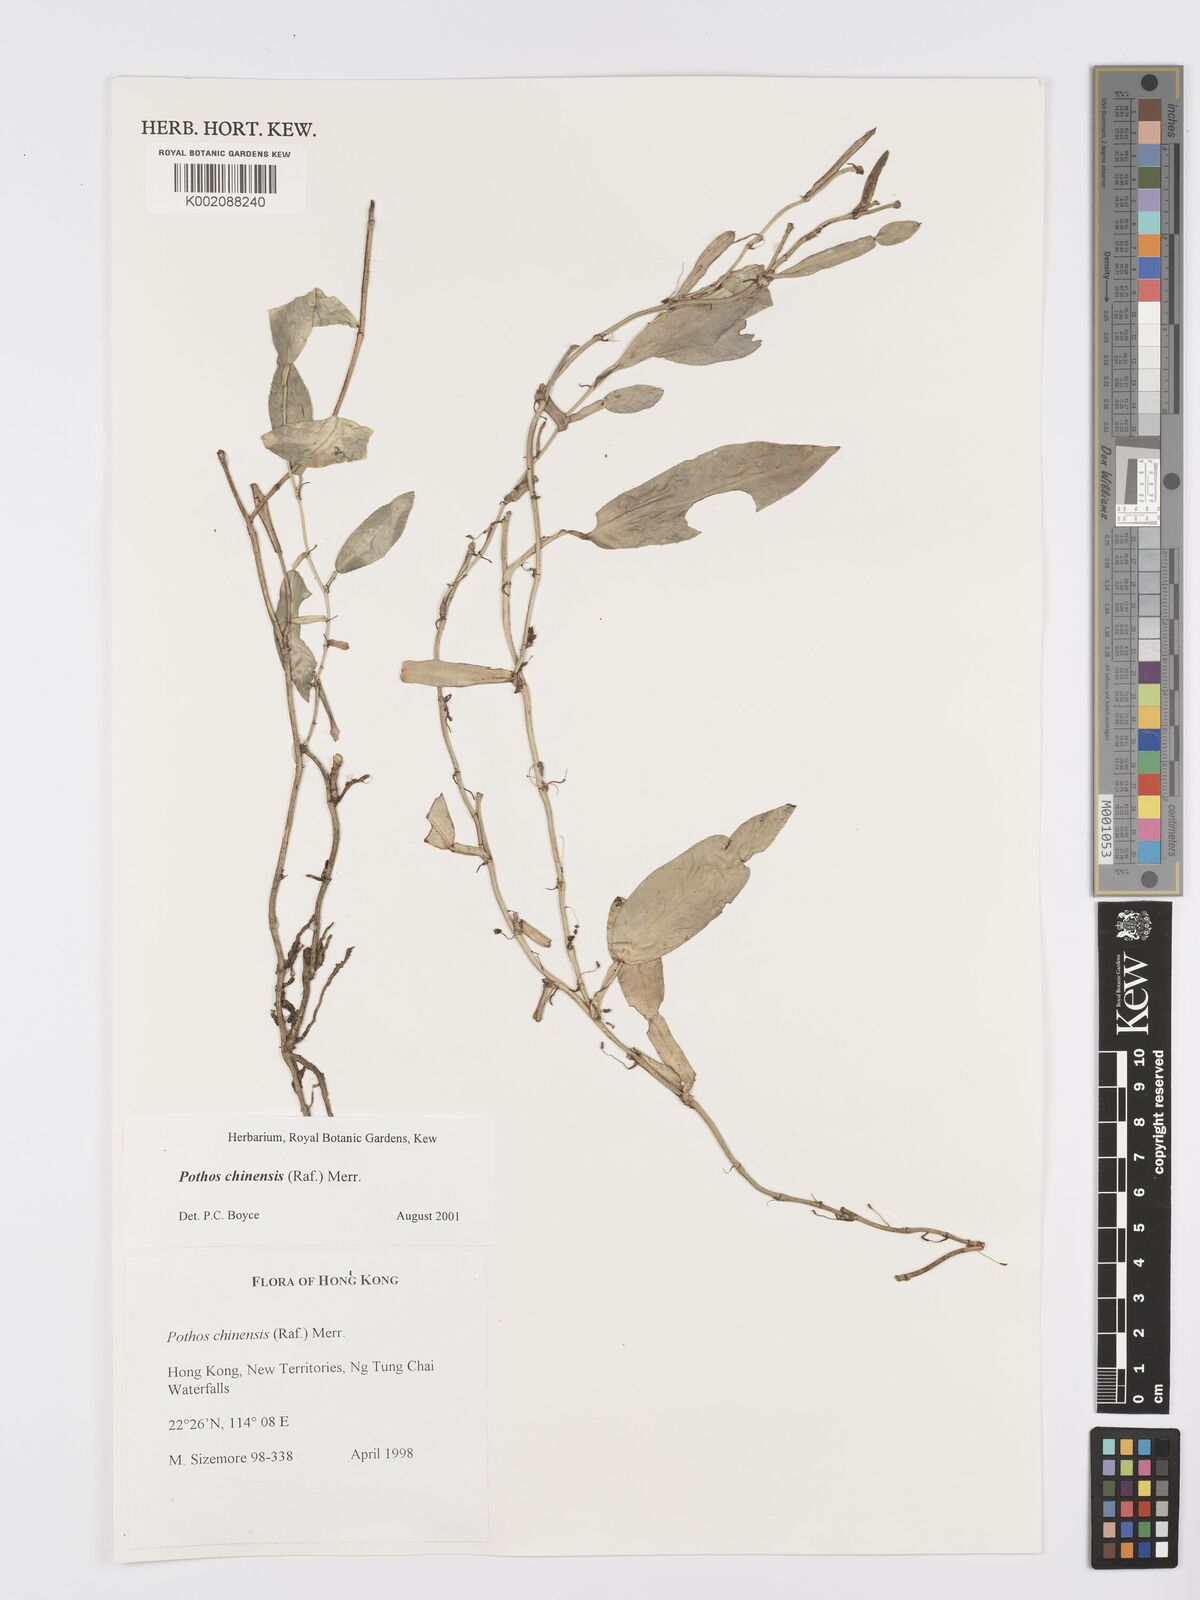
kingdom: Plantae
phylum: Tracheophyta
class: Liliopsida
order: Alismatales
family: Araceae
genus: Pothos
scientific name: Pothos chinensis
